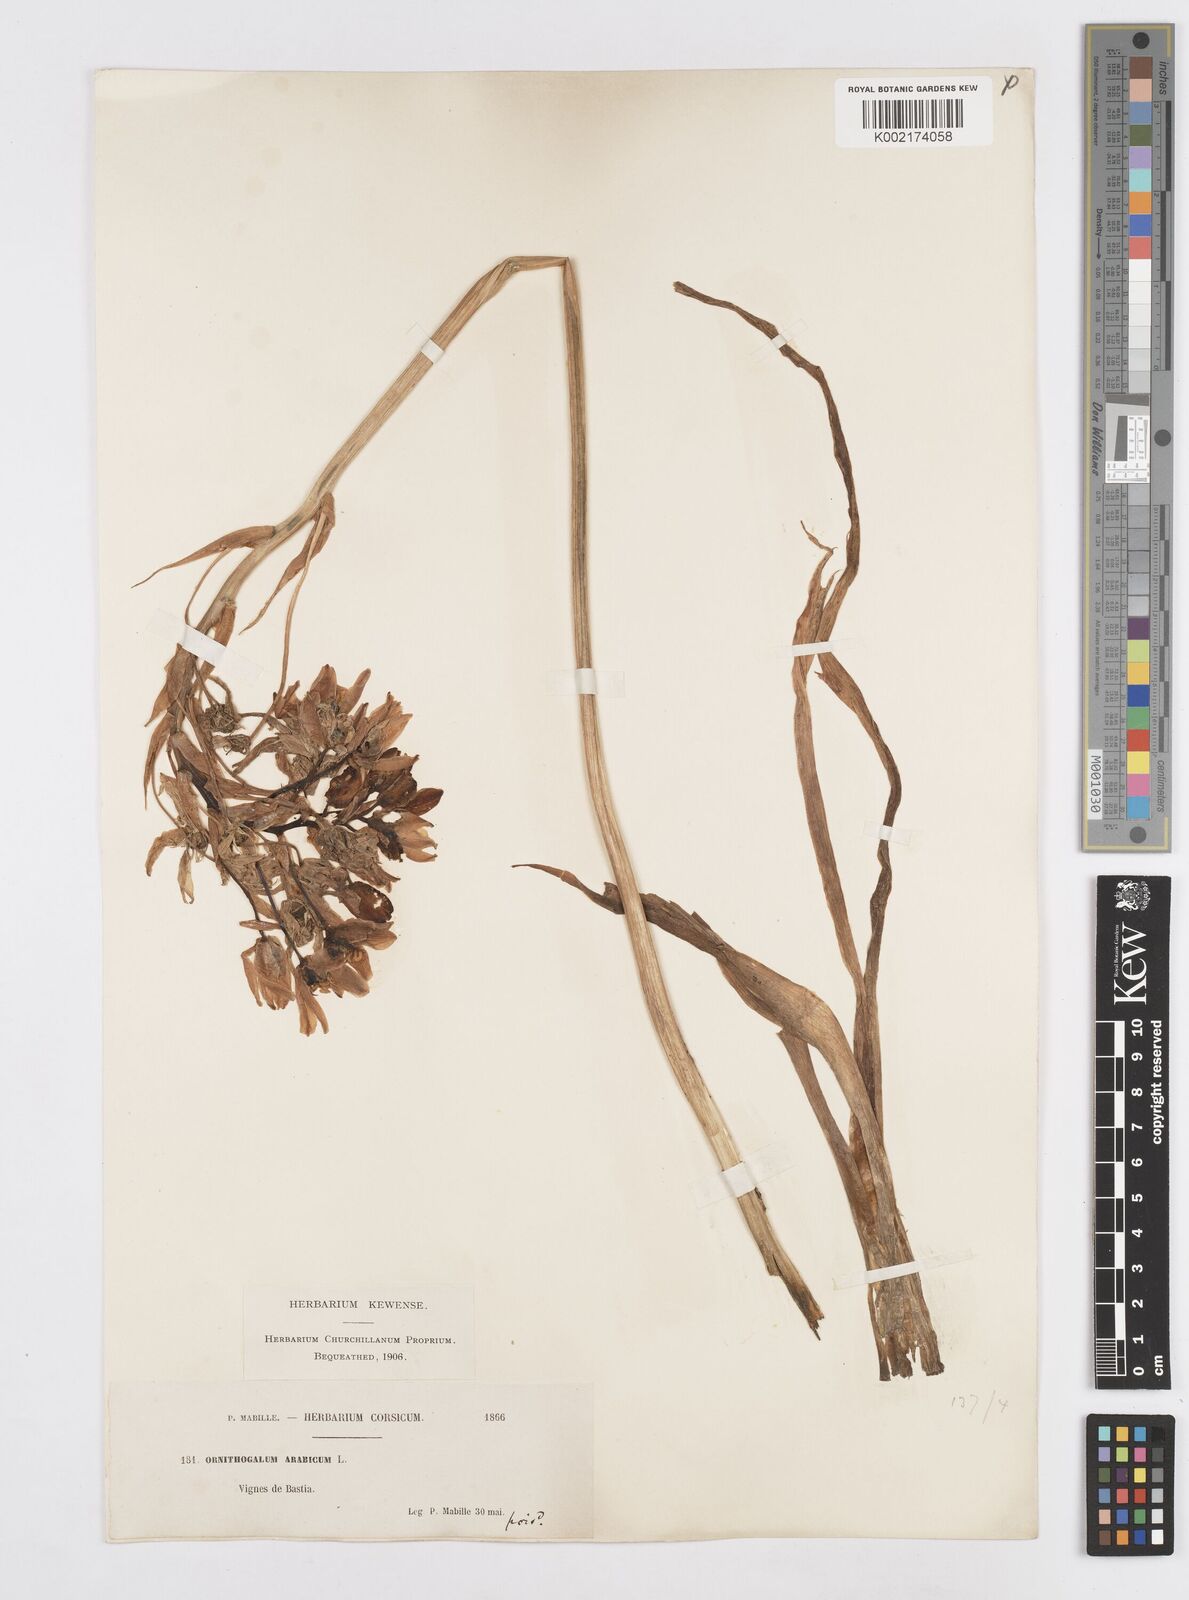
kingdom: Plantae
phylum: Tracheophyta
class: Liliopsida
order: Asparagales
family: Asparagaceae
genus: Ornithogalum
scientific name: Ornithogalum arabicum
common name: Arabian starflower
